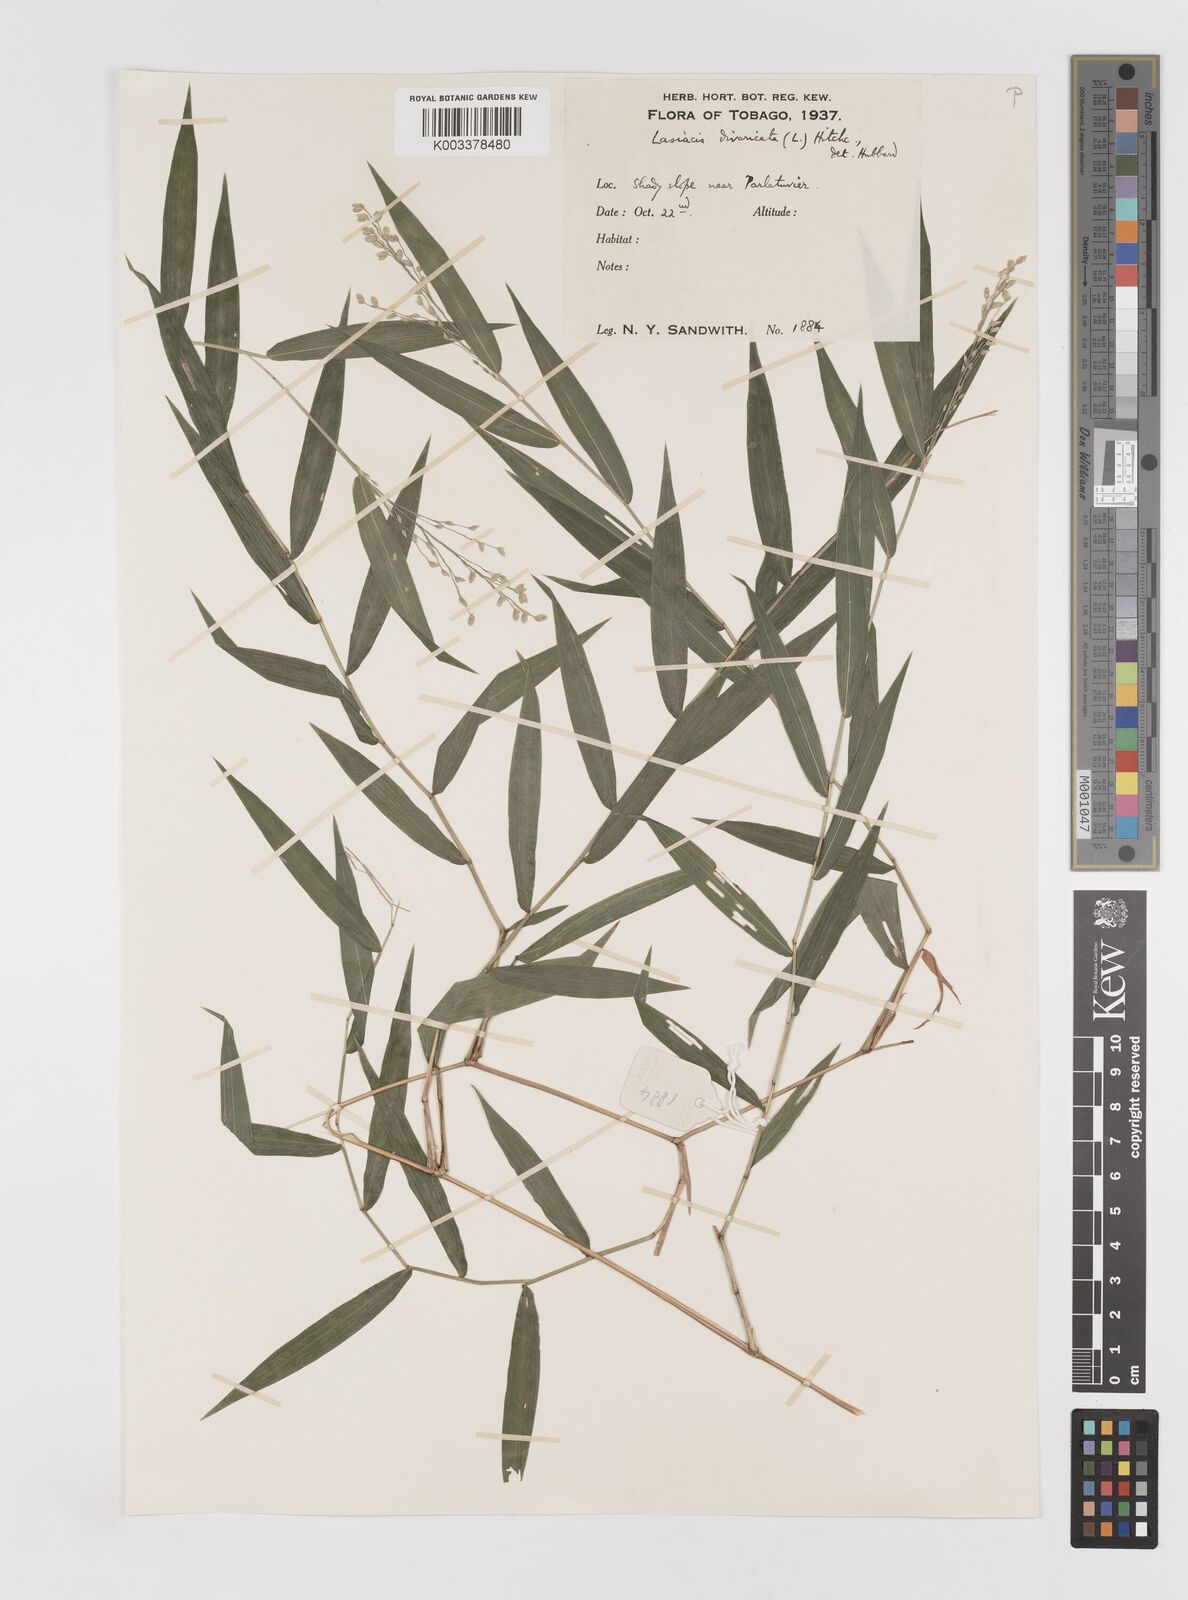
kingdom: Plantae
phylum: Tracheophyta
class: Liliopsida
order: Poales
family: Poaceae
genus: Lasiacis
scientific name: Lasiacis divaricata
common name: Smallcane
